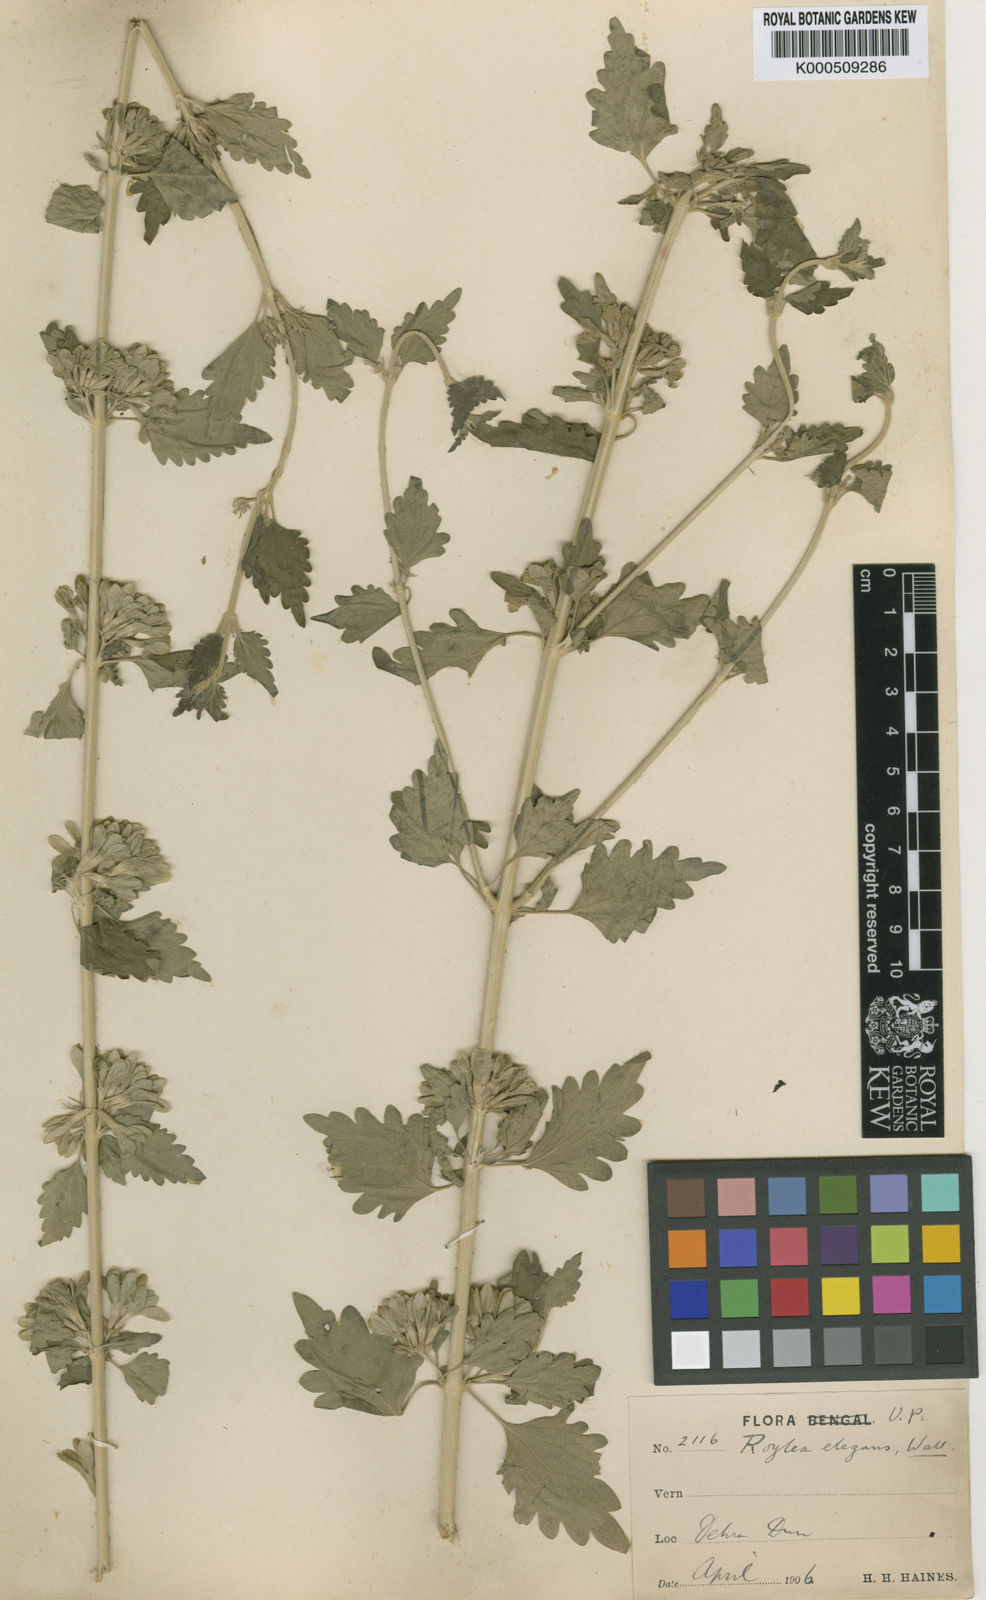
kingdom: Plantae
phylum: Tracheophyta
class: Magnoliopsida
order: Lamiales
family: Lamiaceae
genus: Roylea
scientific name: Roylea cinerea
